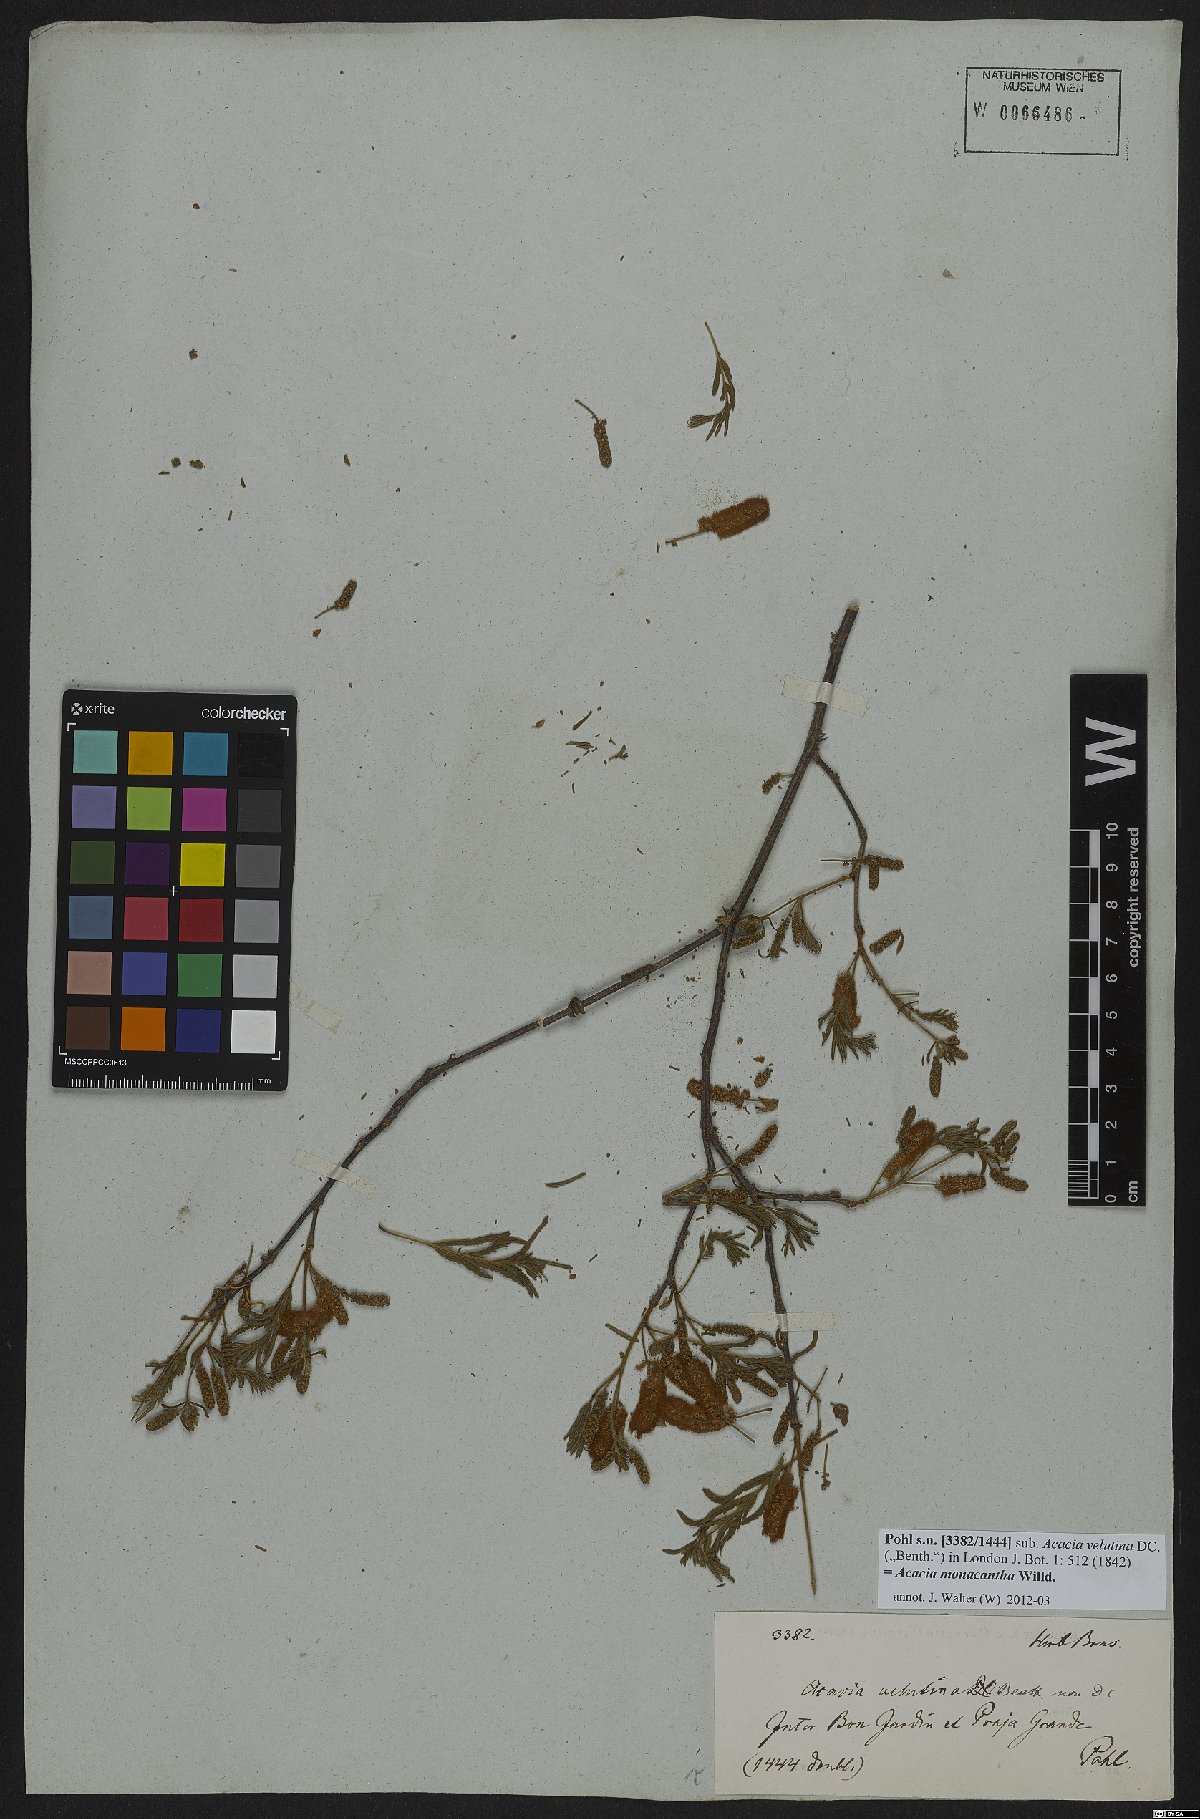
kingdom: Plantae
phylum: Tracheophyta
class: Magnoliopsida
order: Fabales
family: Fabaceae
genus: Senegalia
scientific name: Senegalia monacantha
